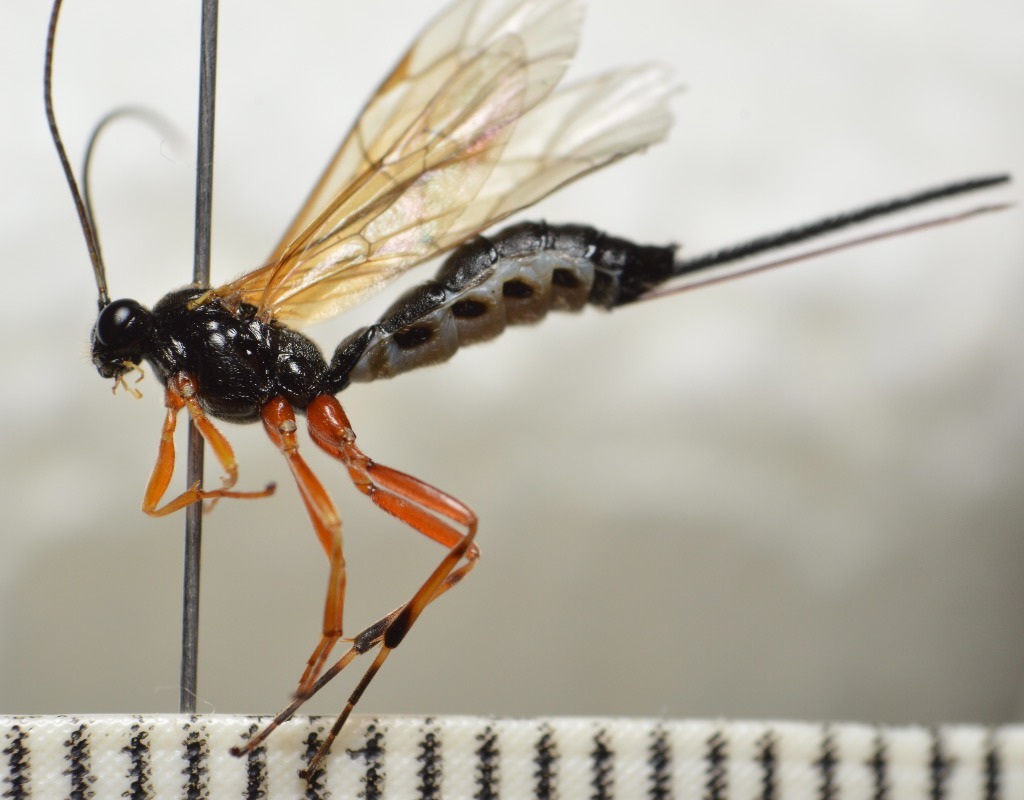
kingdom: Animalia
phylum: Arthropoda
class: Insecta
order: Hymenoptera
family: Ichneumonidae
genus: Gregopimpla
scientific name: Gregopimpla inquisitor
